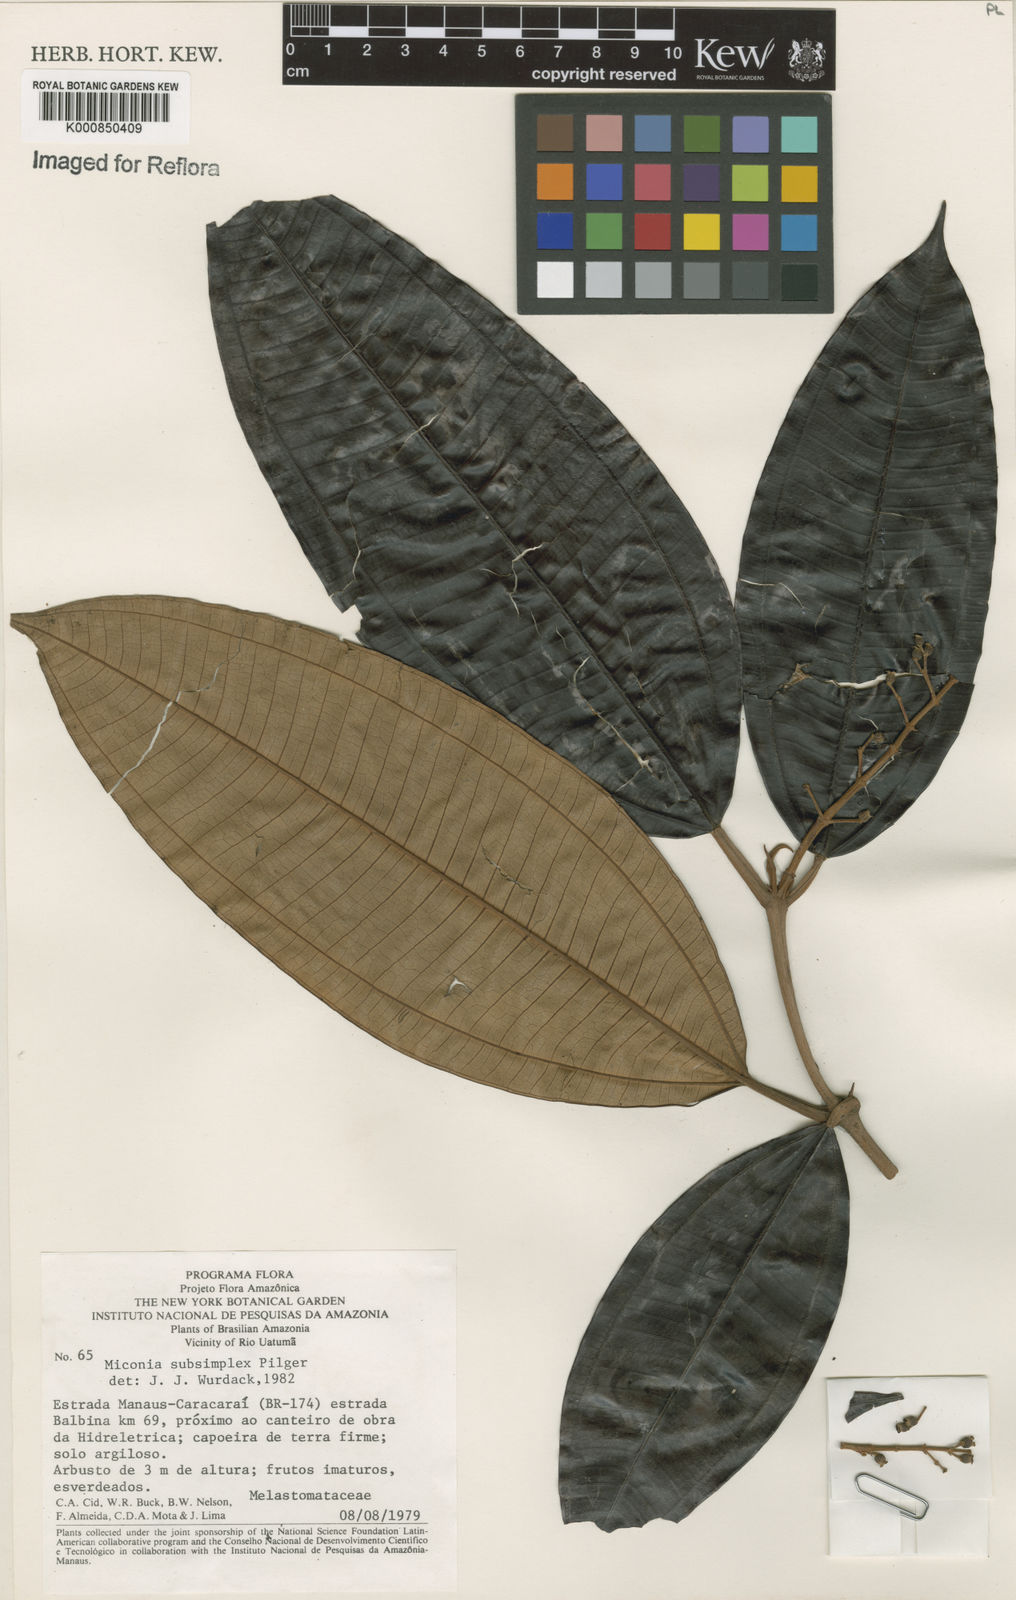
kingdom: Plantae
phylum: Tracheophyta
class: Magnoliopsida
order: Myrtales
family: Melastomataceae
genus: Miconia
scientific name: Miconia subsimplex
